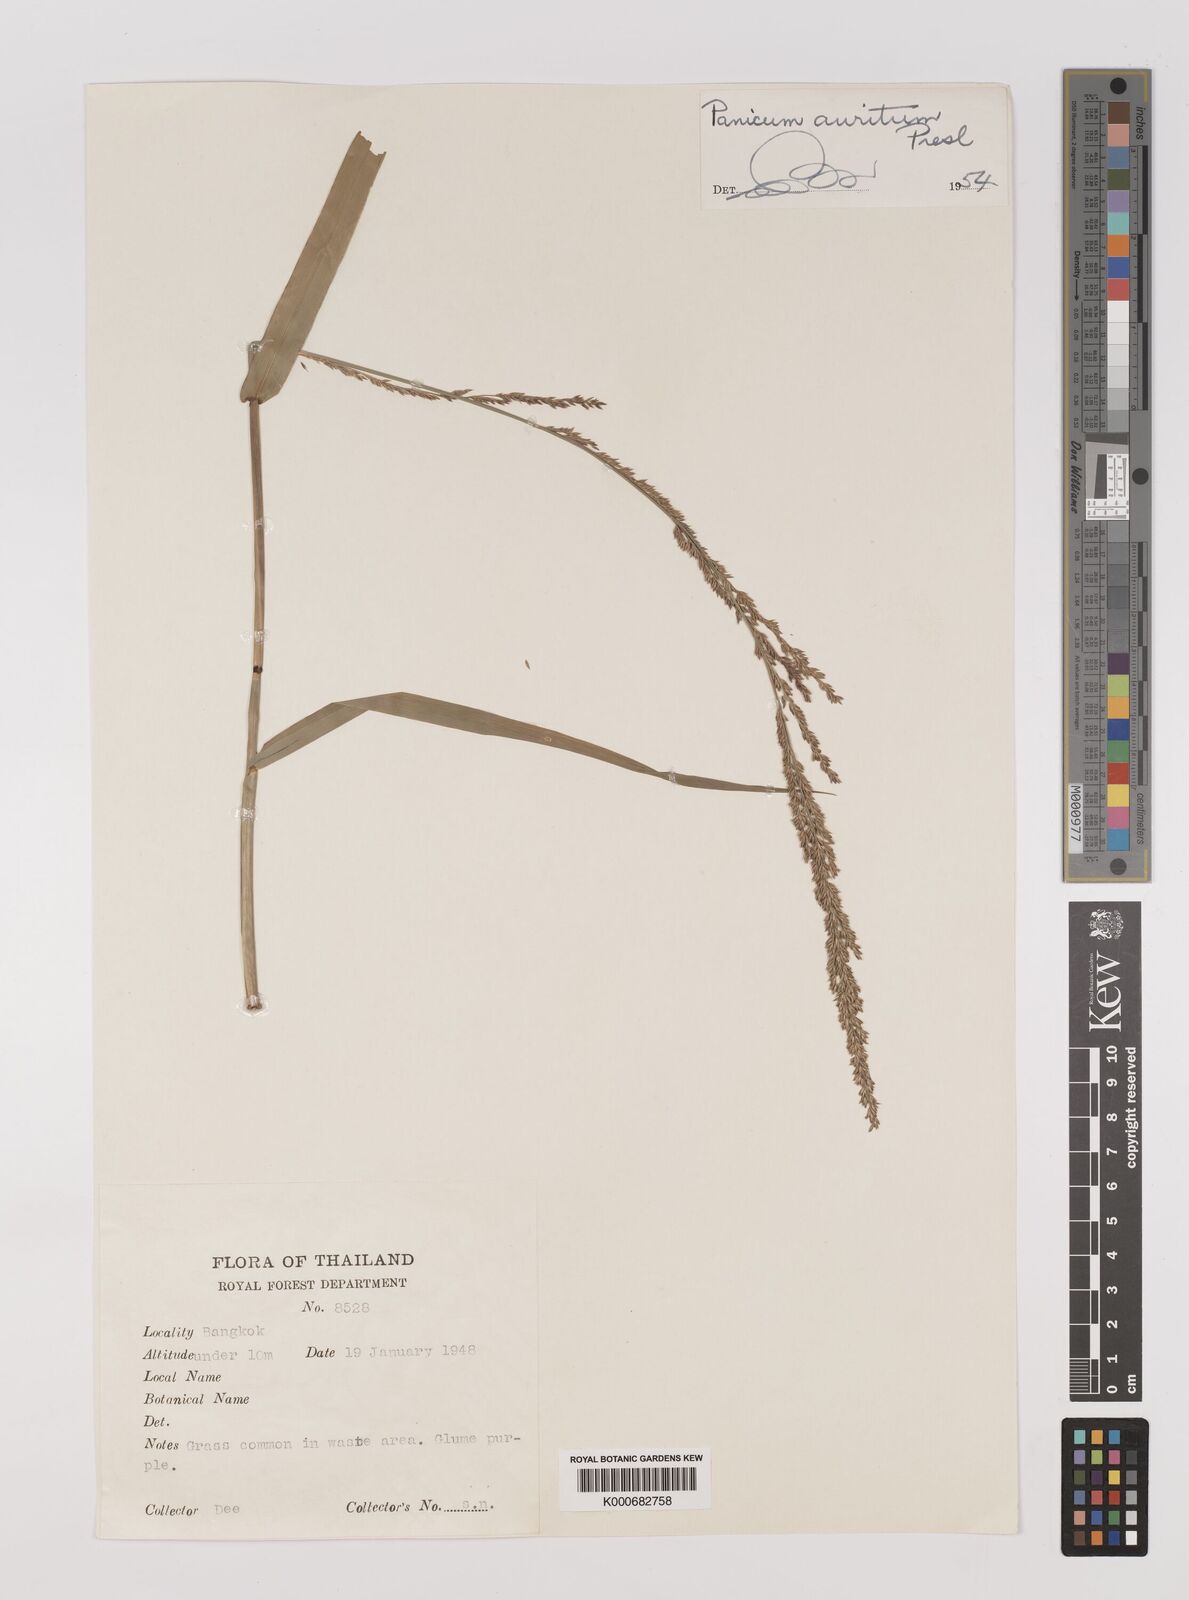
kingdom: Plantae
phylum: Tracheophyta
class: Liliopsida
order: Poales
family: Poaceae
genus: Hymenachne
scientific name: Hymenachne aurita
